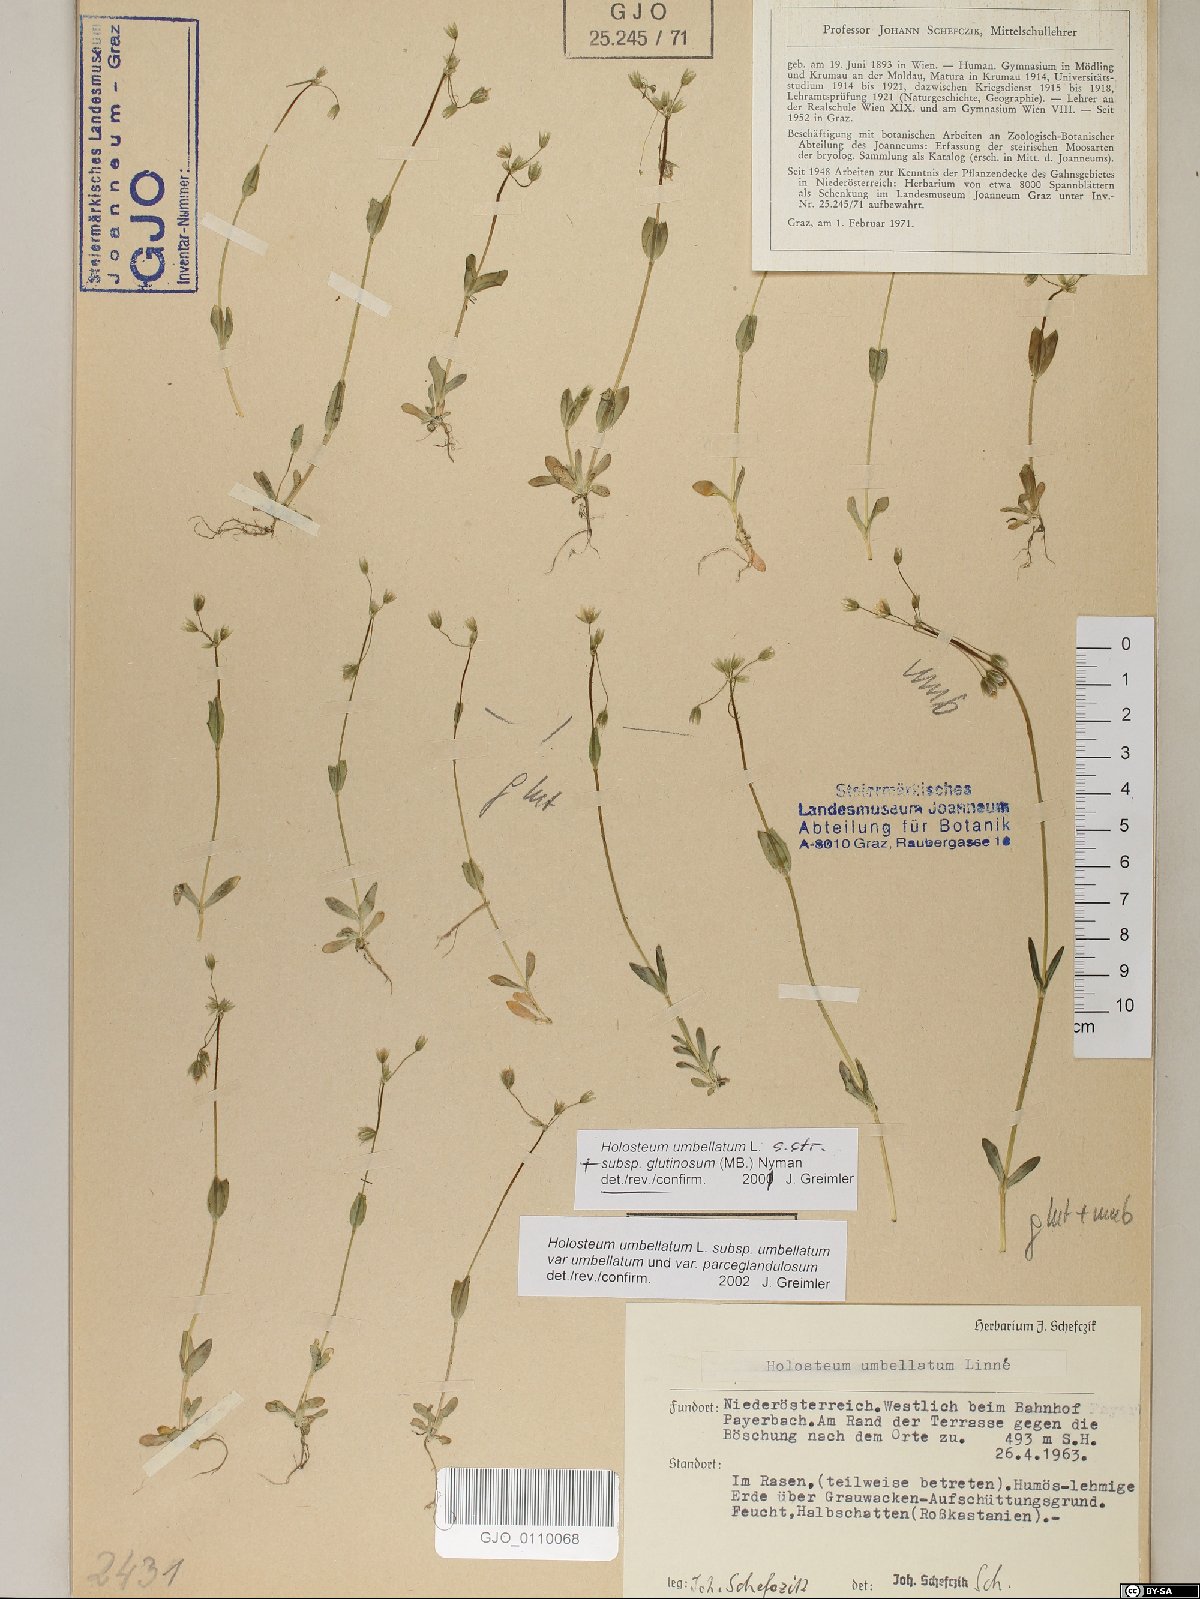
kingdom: Plantae
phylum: Tracheophyta
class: Magnoliopsida
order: Caryophyllales
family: Caryophyllaceae
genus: Holosteum
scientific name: Holosteum umbellatum
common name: Jagged chickweed
